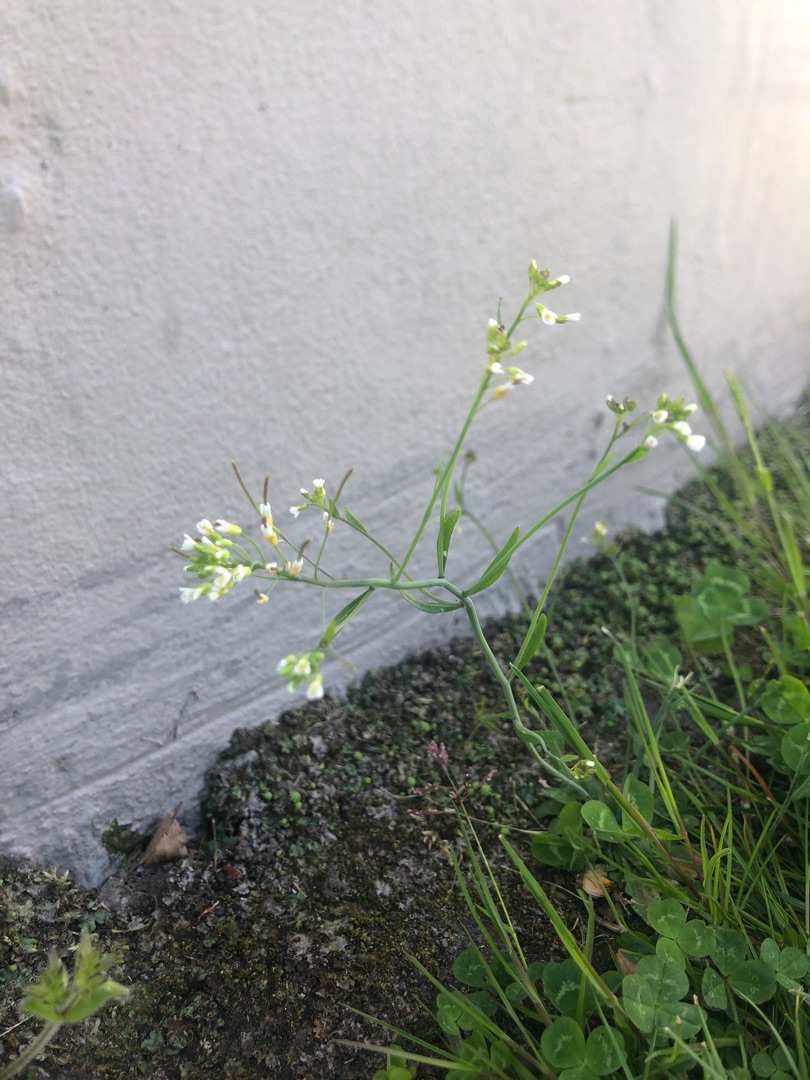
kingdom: Plantae
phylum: Tracheophyta
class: Magnoliopsida
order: Brassicales
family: Brassicaceae
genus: Arabidopsis
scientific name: Arabidopsis thaliana
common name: Almindelig gåsemad
